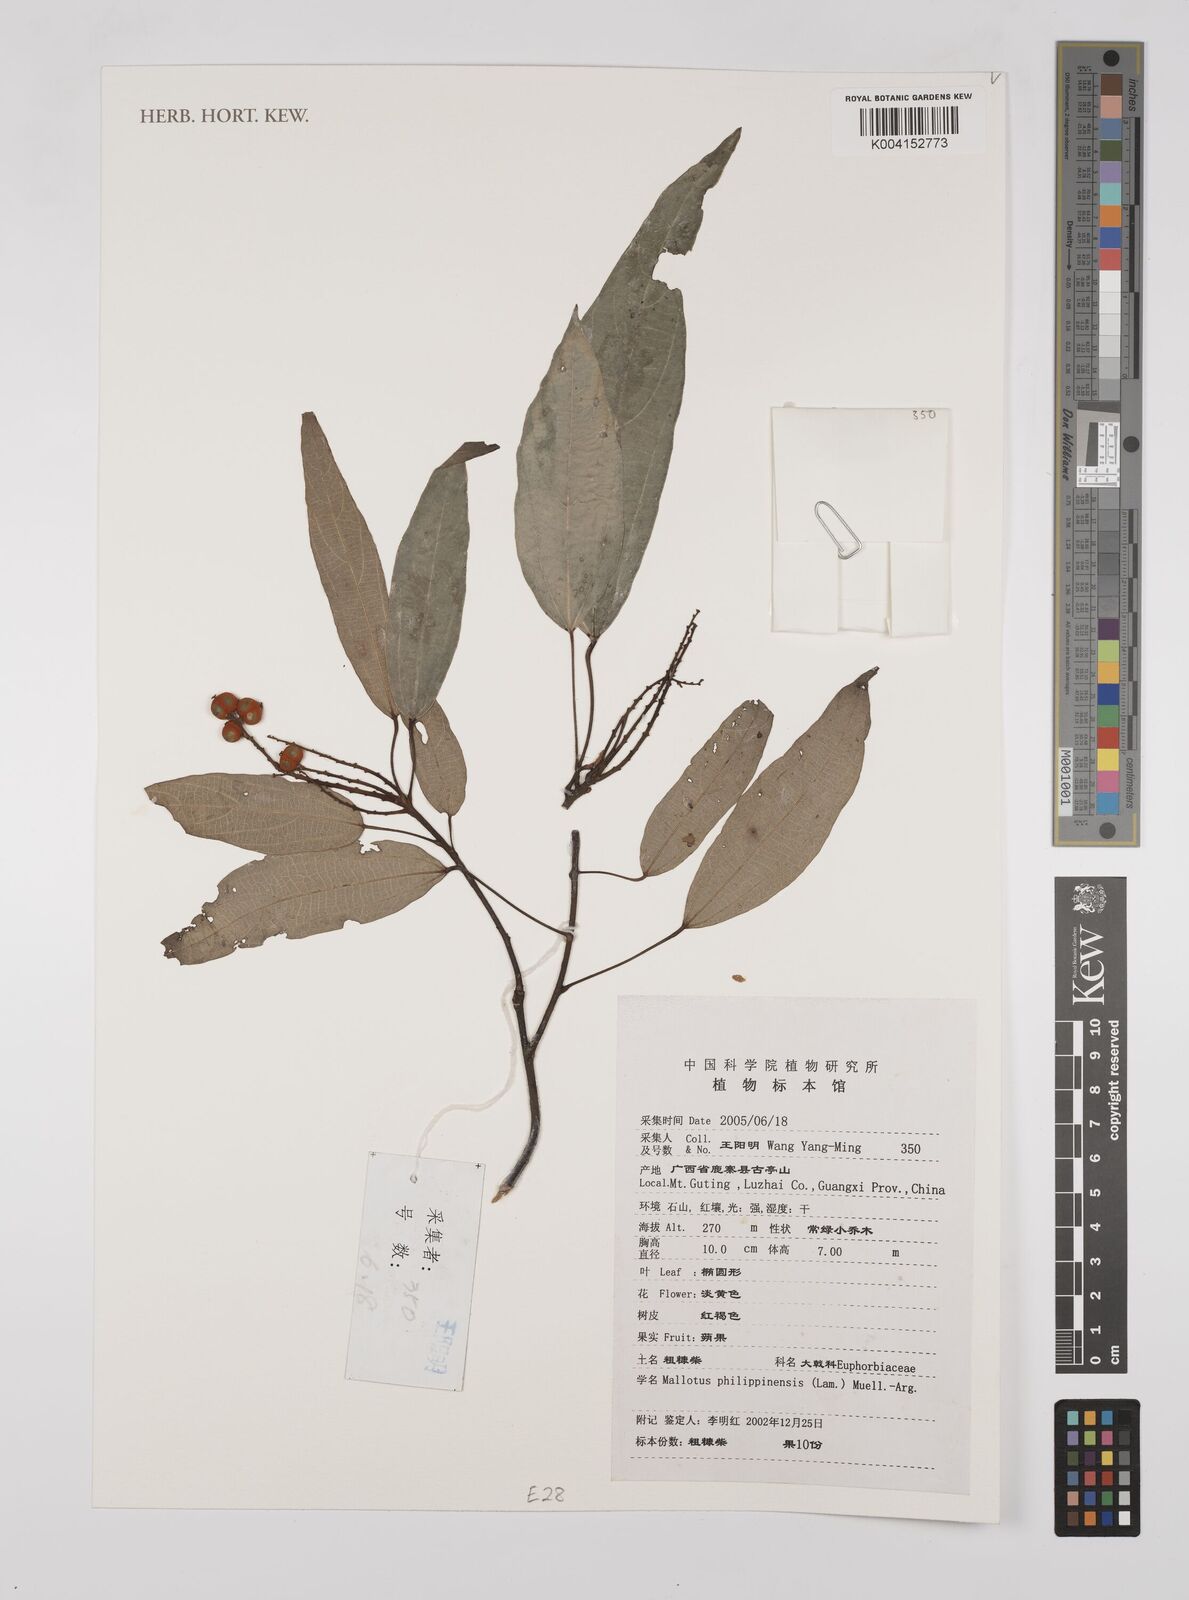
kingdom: Plantae
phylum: Tracheophyta
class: Magnoliopsida
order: Malpighiales
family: Euphorbiaceae
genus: Mallotus
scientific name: Mallotus philippensis
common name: Kamala tree
